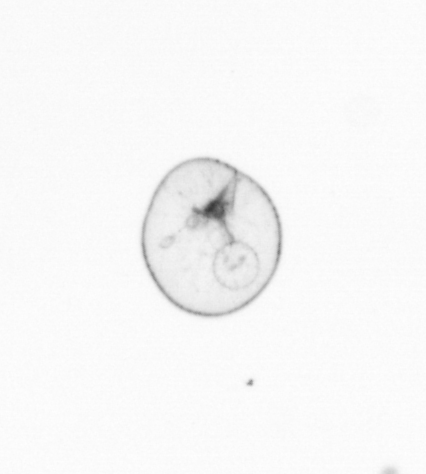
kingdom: Chromista
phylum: Myzozoa
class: Dinophyceae
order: Noctilucales
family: Noctilucaceae
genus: Noctiluca
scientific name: Noctiluca scintillans
